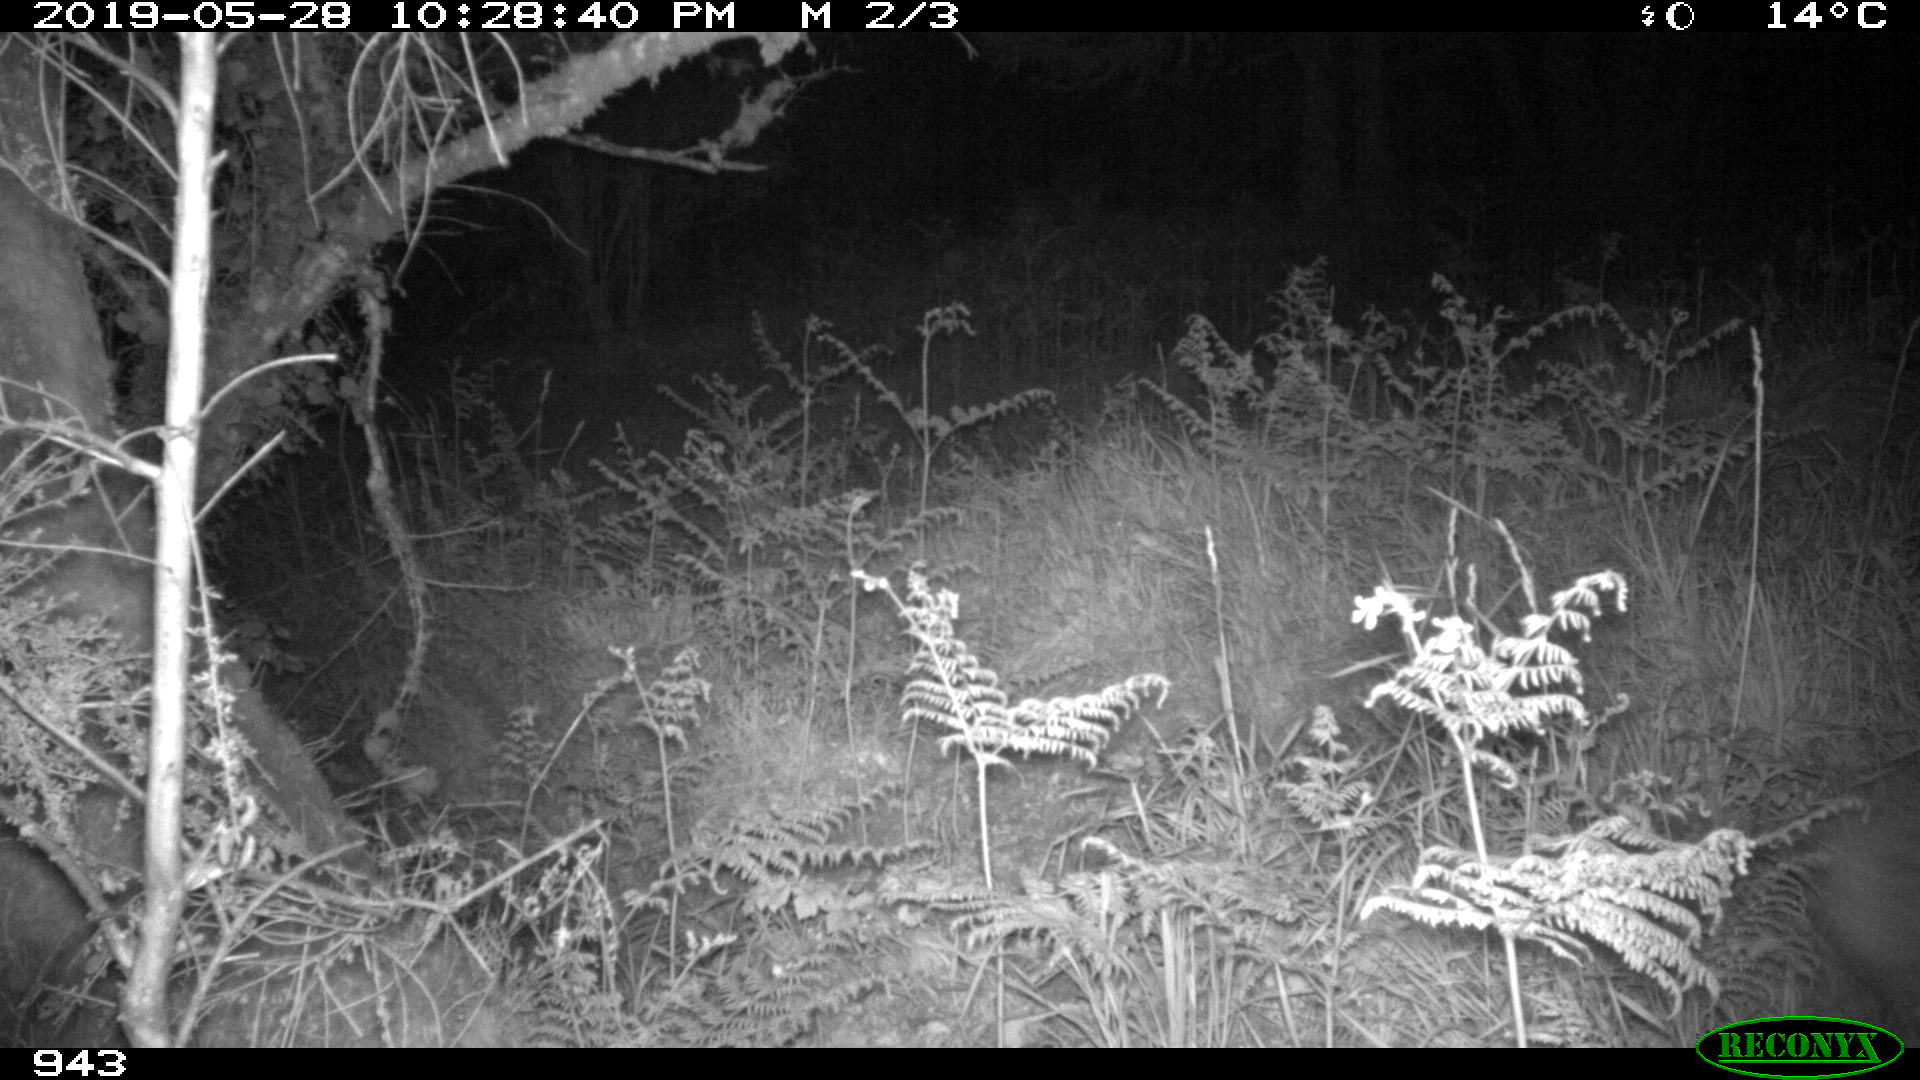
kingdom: Animalia
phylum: Chordata
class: Mammalia
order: Artiodactyla
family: Suidae
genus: Sus
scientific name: Sus scrofa
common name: Wild boar
